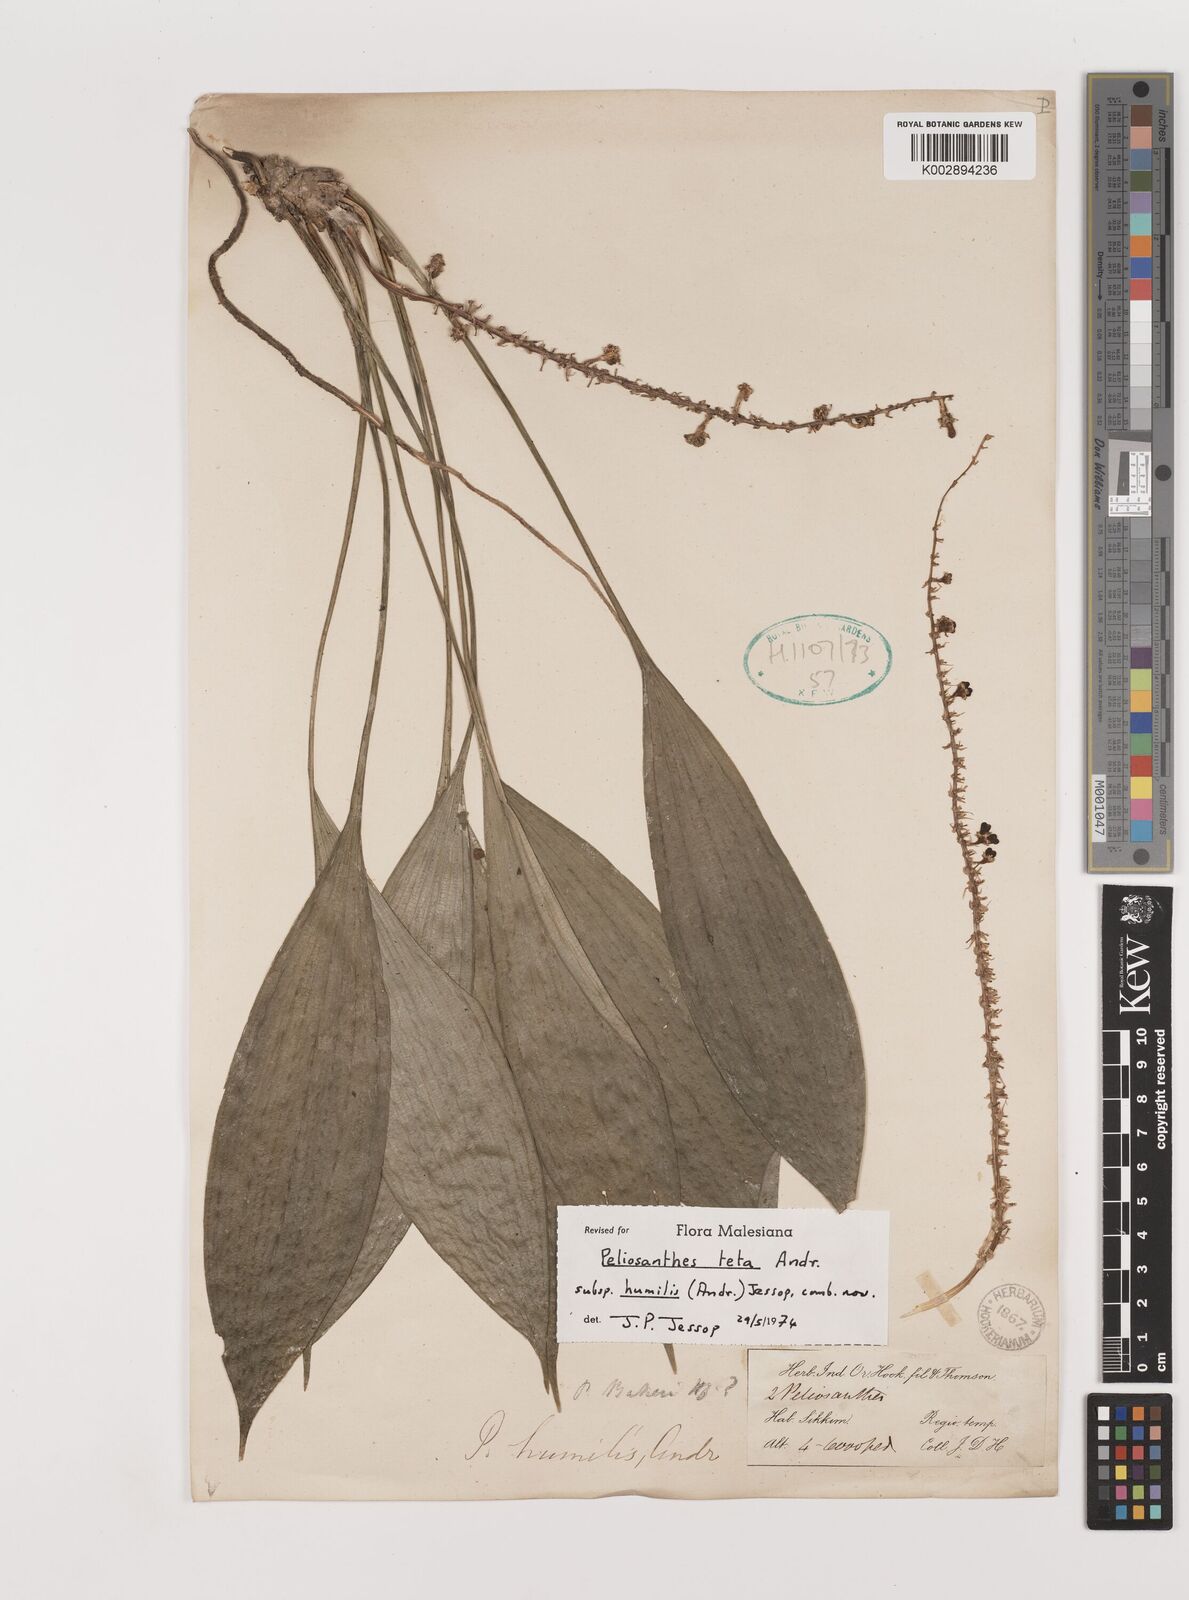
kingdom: Plantae
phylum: Tracheophyta
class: Liliopsida
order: Asparagales
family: Asparagaceae
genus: Peliosanthes
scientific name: Peliosanthes teta
